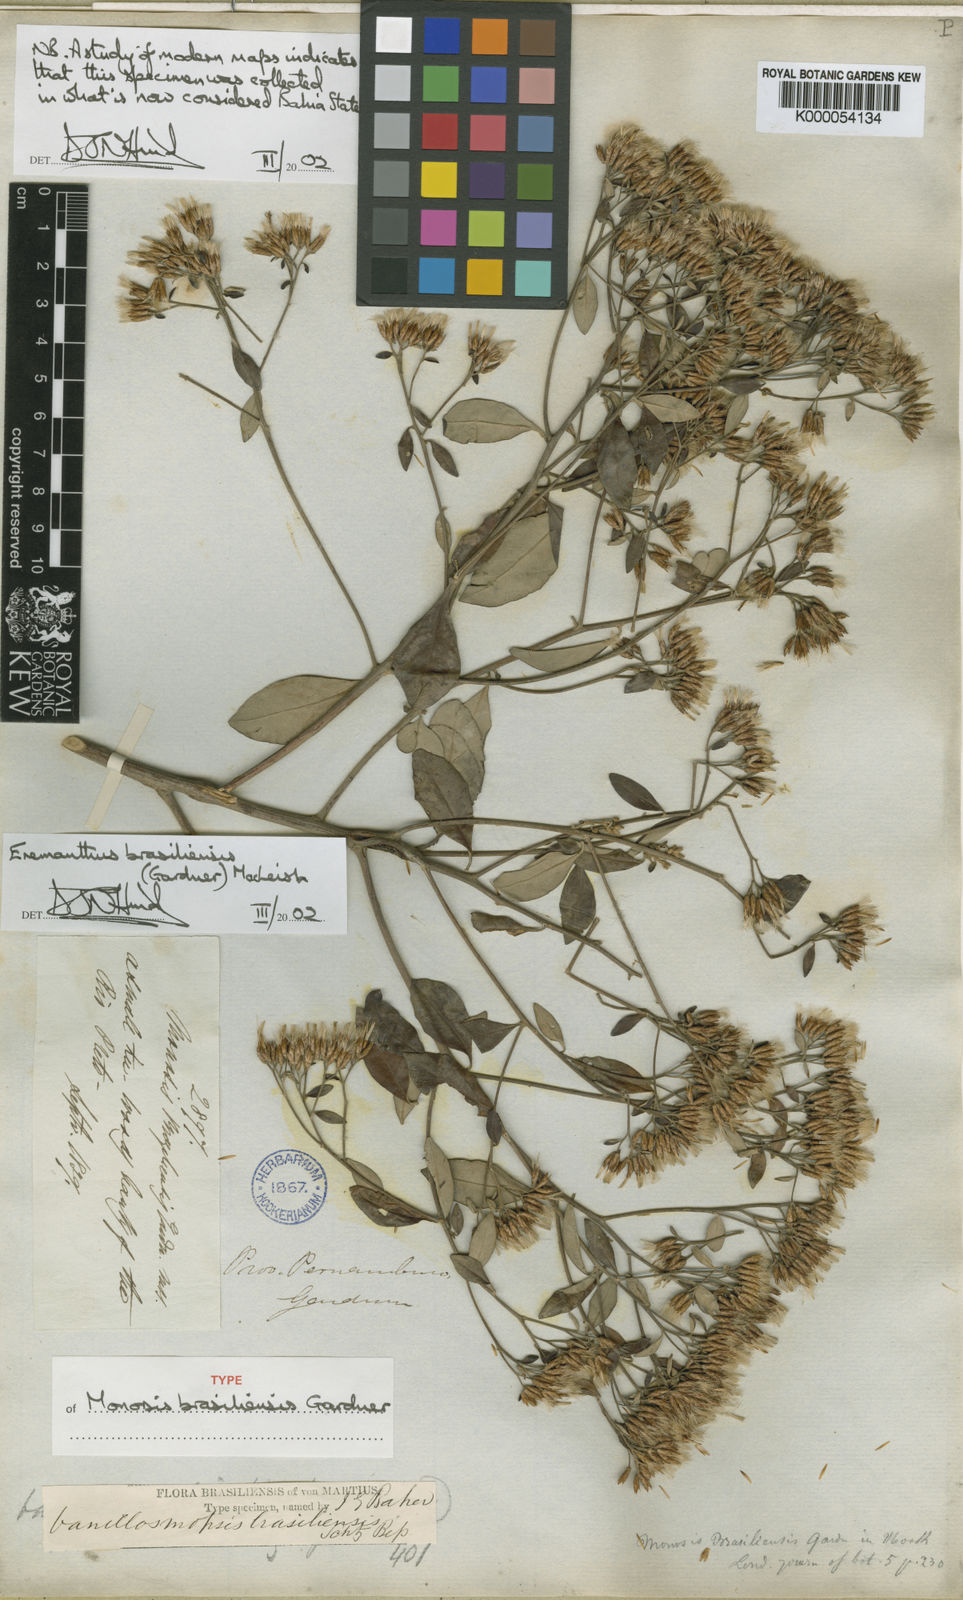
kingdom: Plantae
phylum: Tracheophyta
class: Magnoliopsida
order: Asterales
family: Asteraceae
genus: Eremanthus
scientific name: Eremanthus brasiliensis
